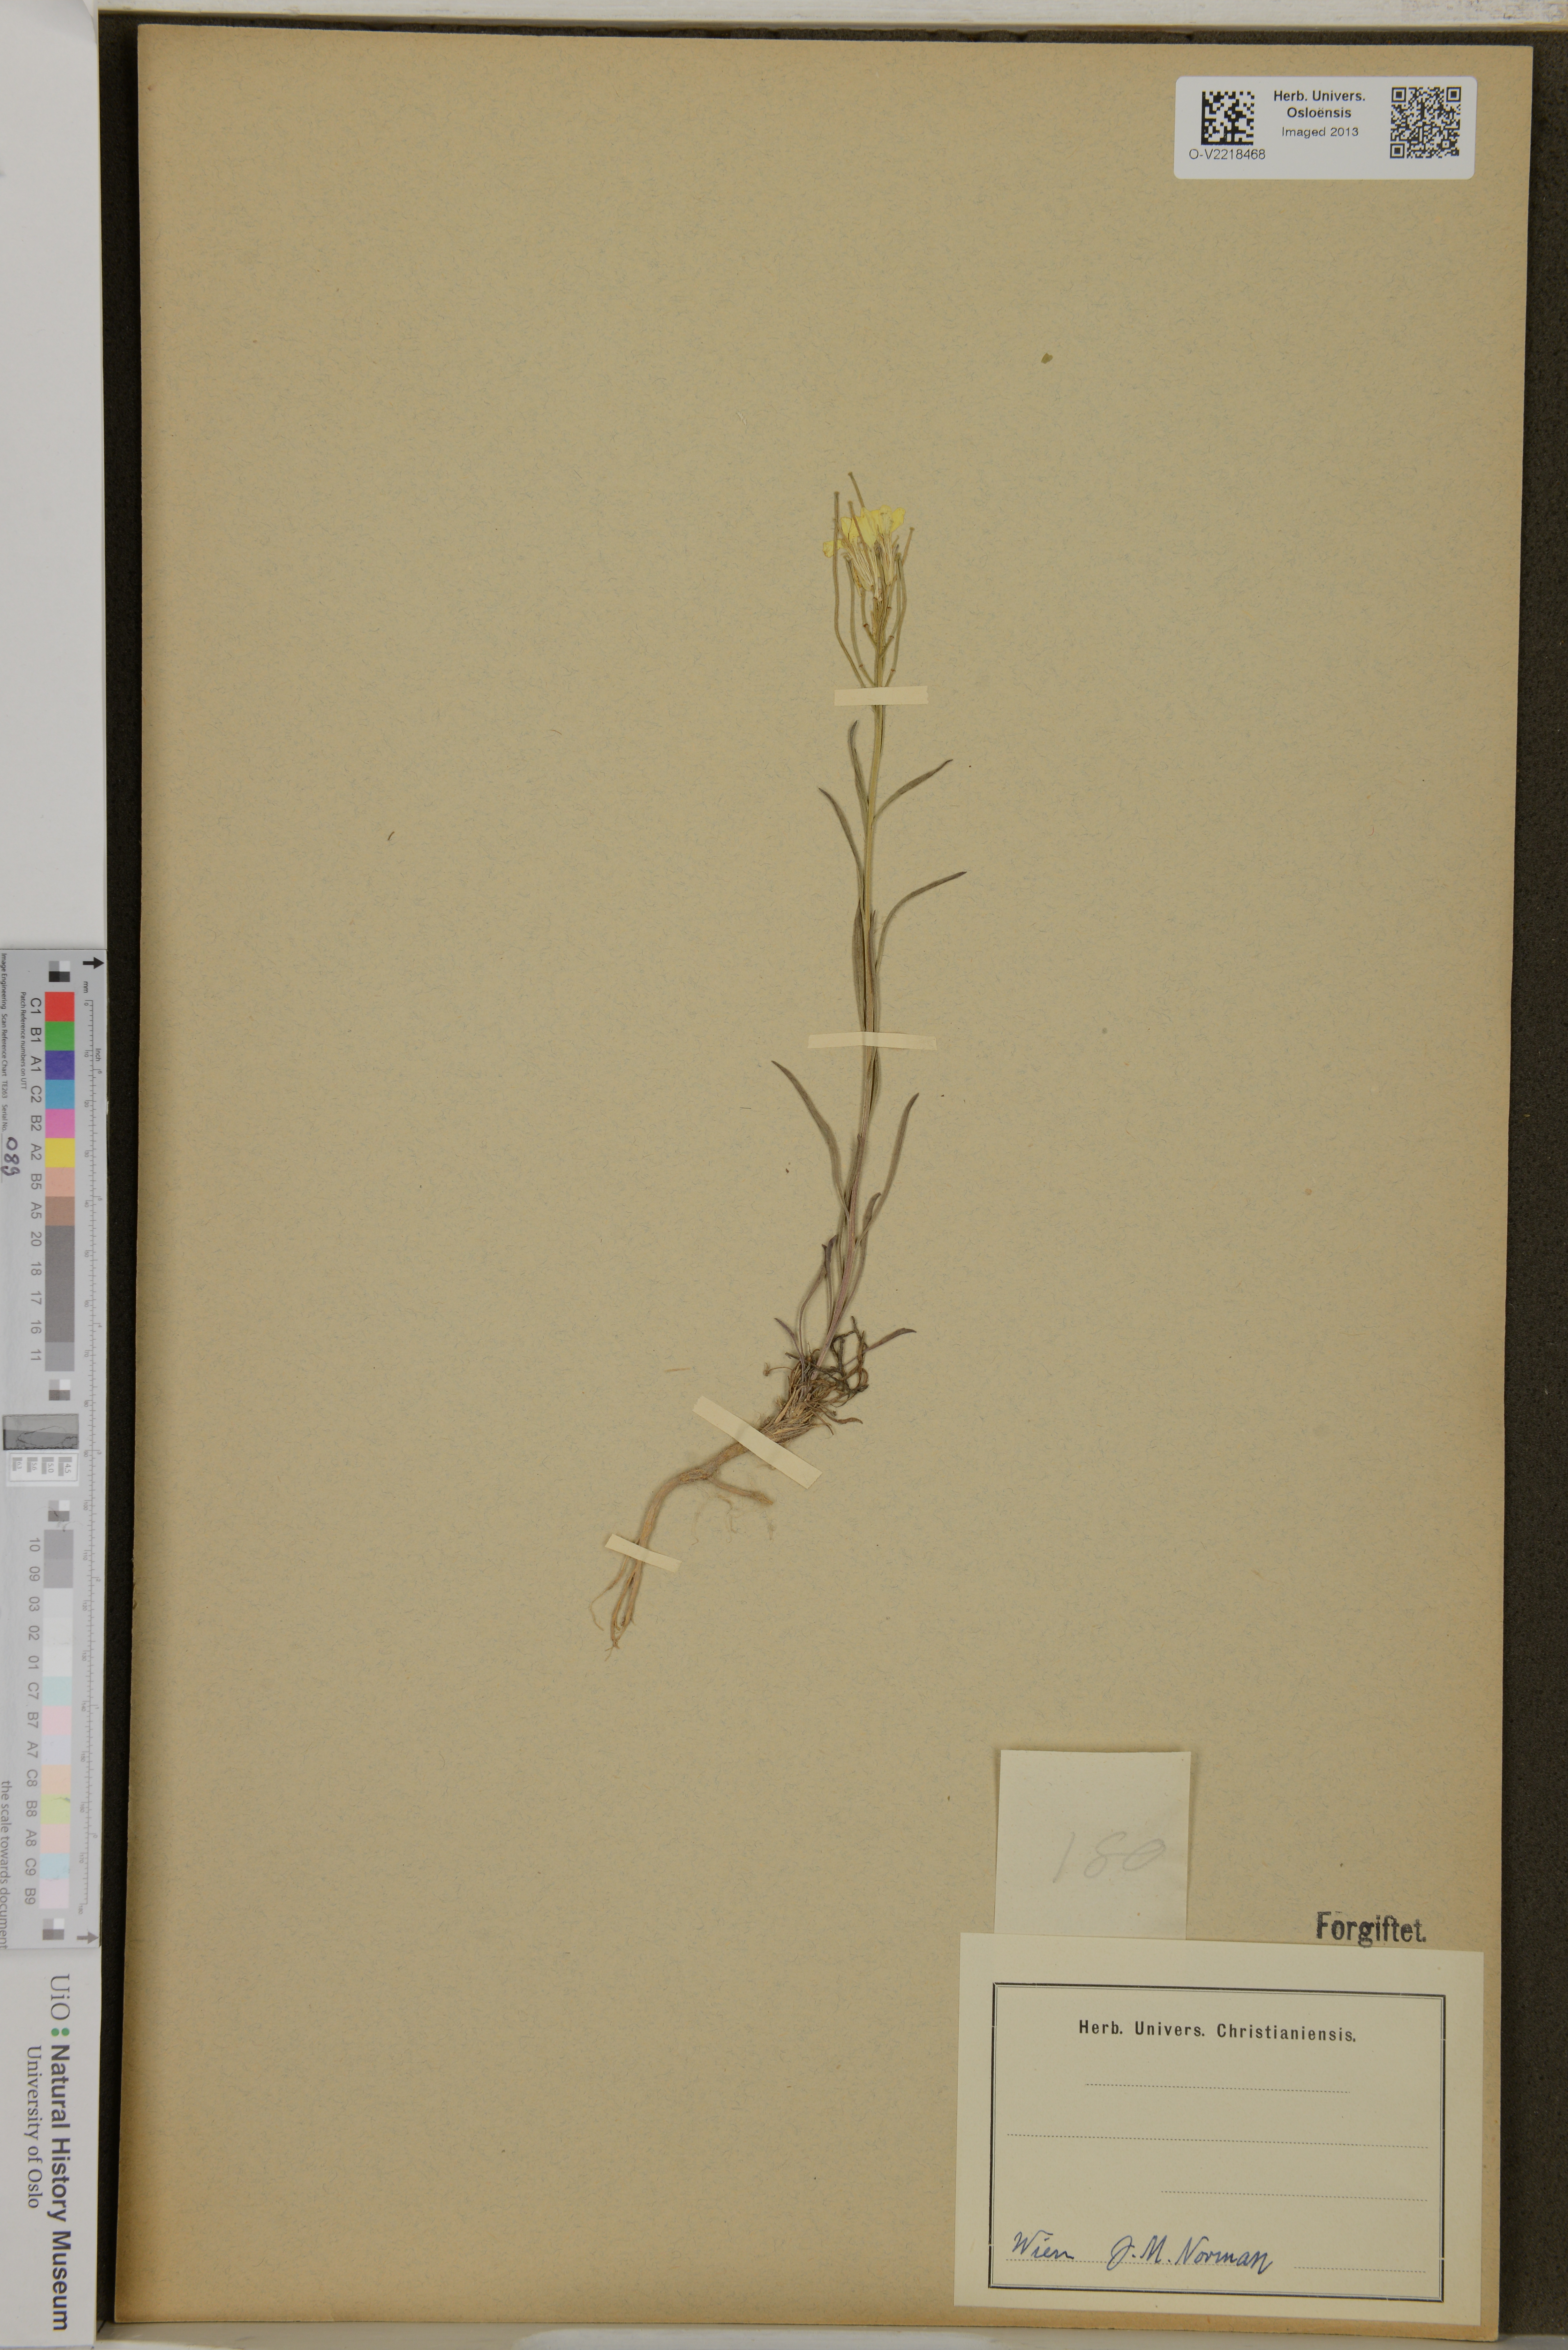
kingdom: Plantae
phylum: Tracheophyta
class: Magnoliopsida
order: Brassicales
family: Brassicaceae
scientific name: Brassicaceae
